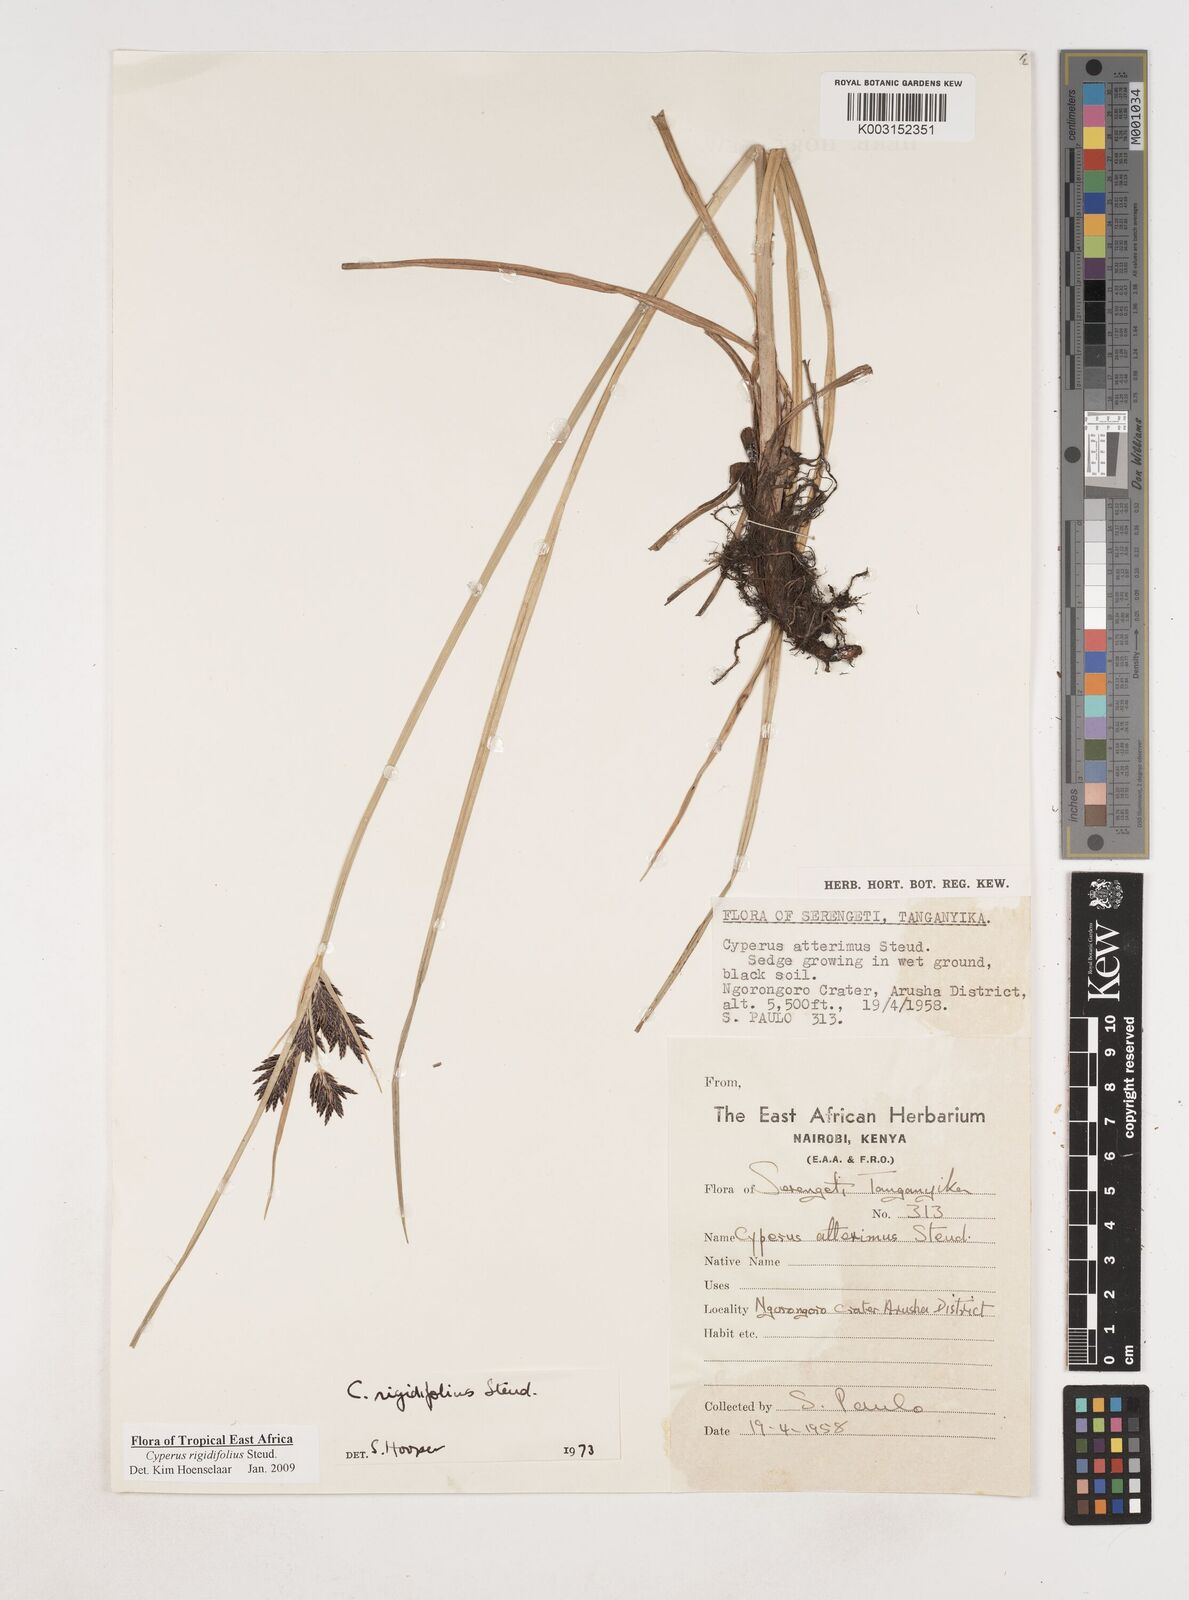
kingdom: Plantae
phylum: Tracheophyta
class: Liliopsida
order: Poales
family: Cyperaceae
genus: Cyperus
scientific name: Cyperus rigidifolius
